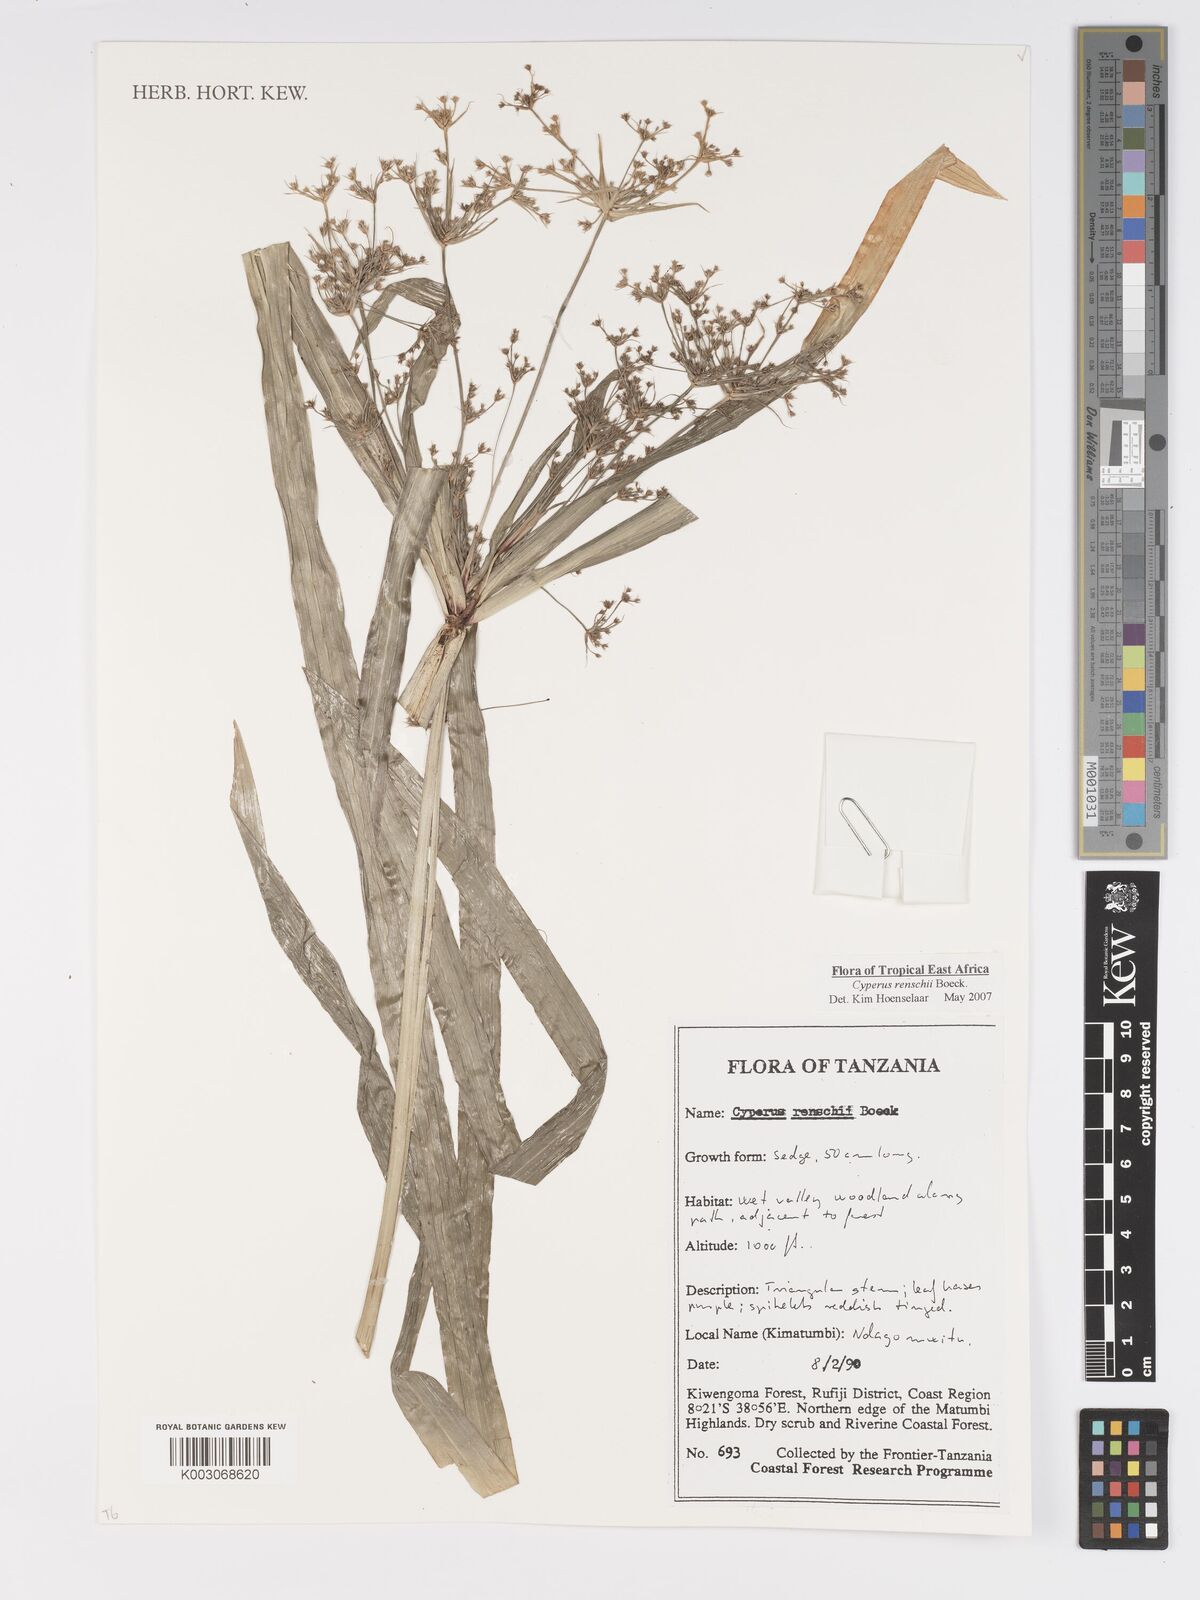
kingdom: Plantae
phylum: Tracheophyta
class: Liliopsida
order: Poales
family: Cyperaceae
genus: Cyperus
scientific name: Cyperus renschii
